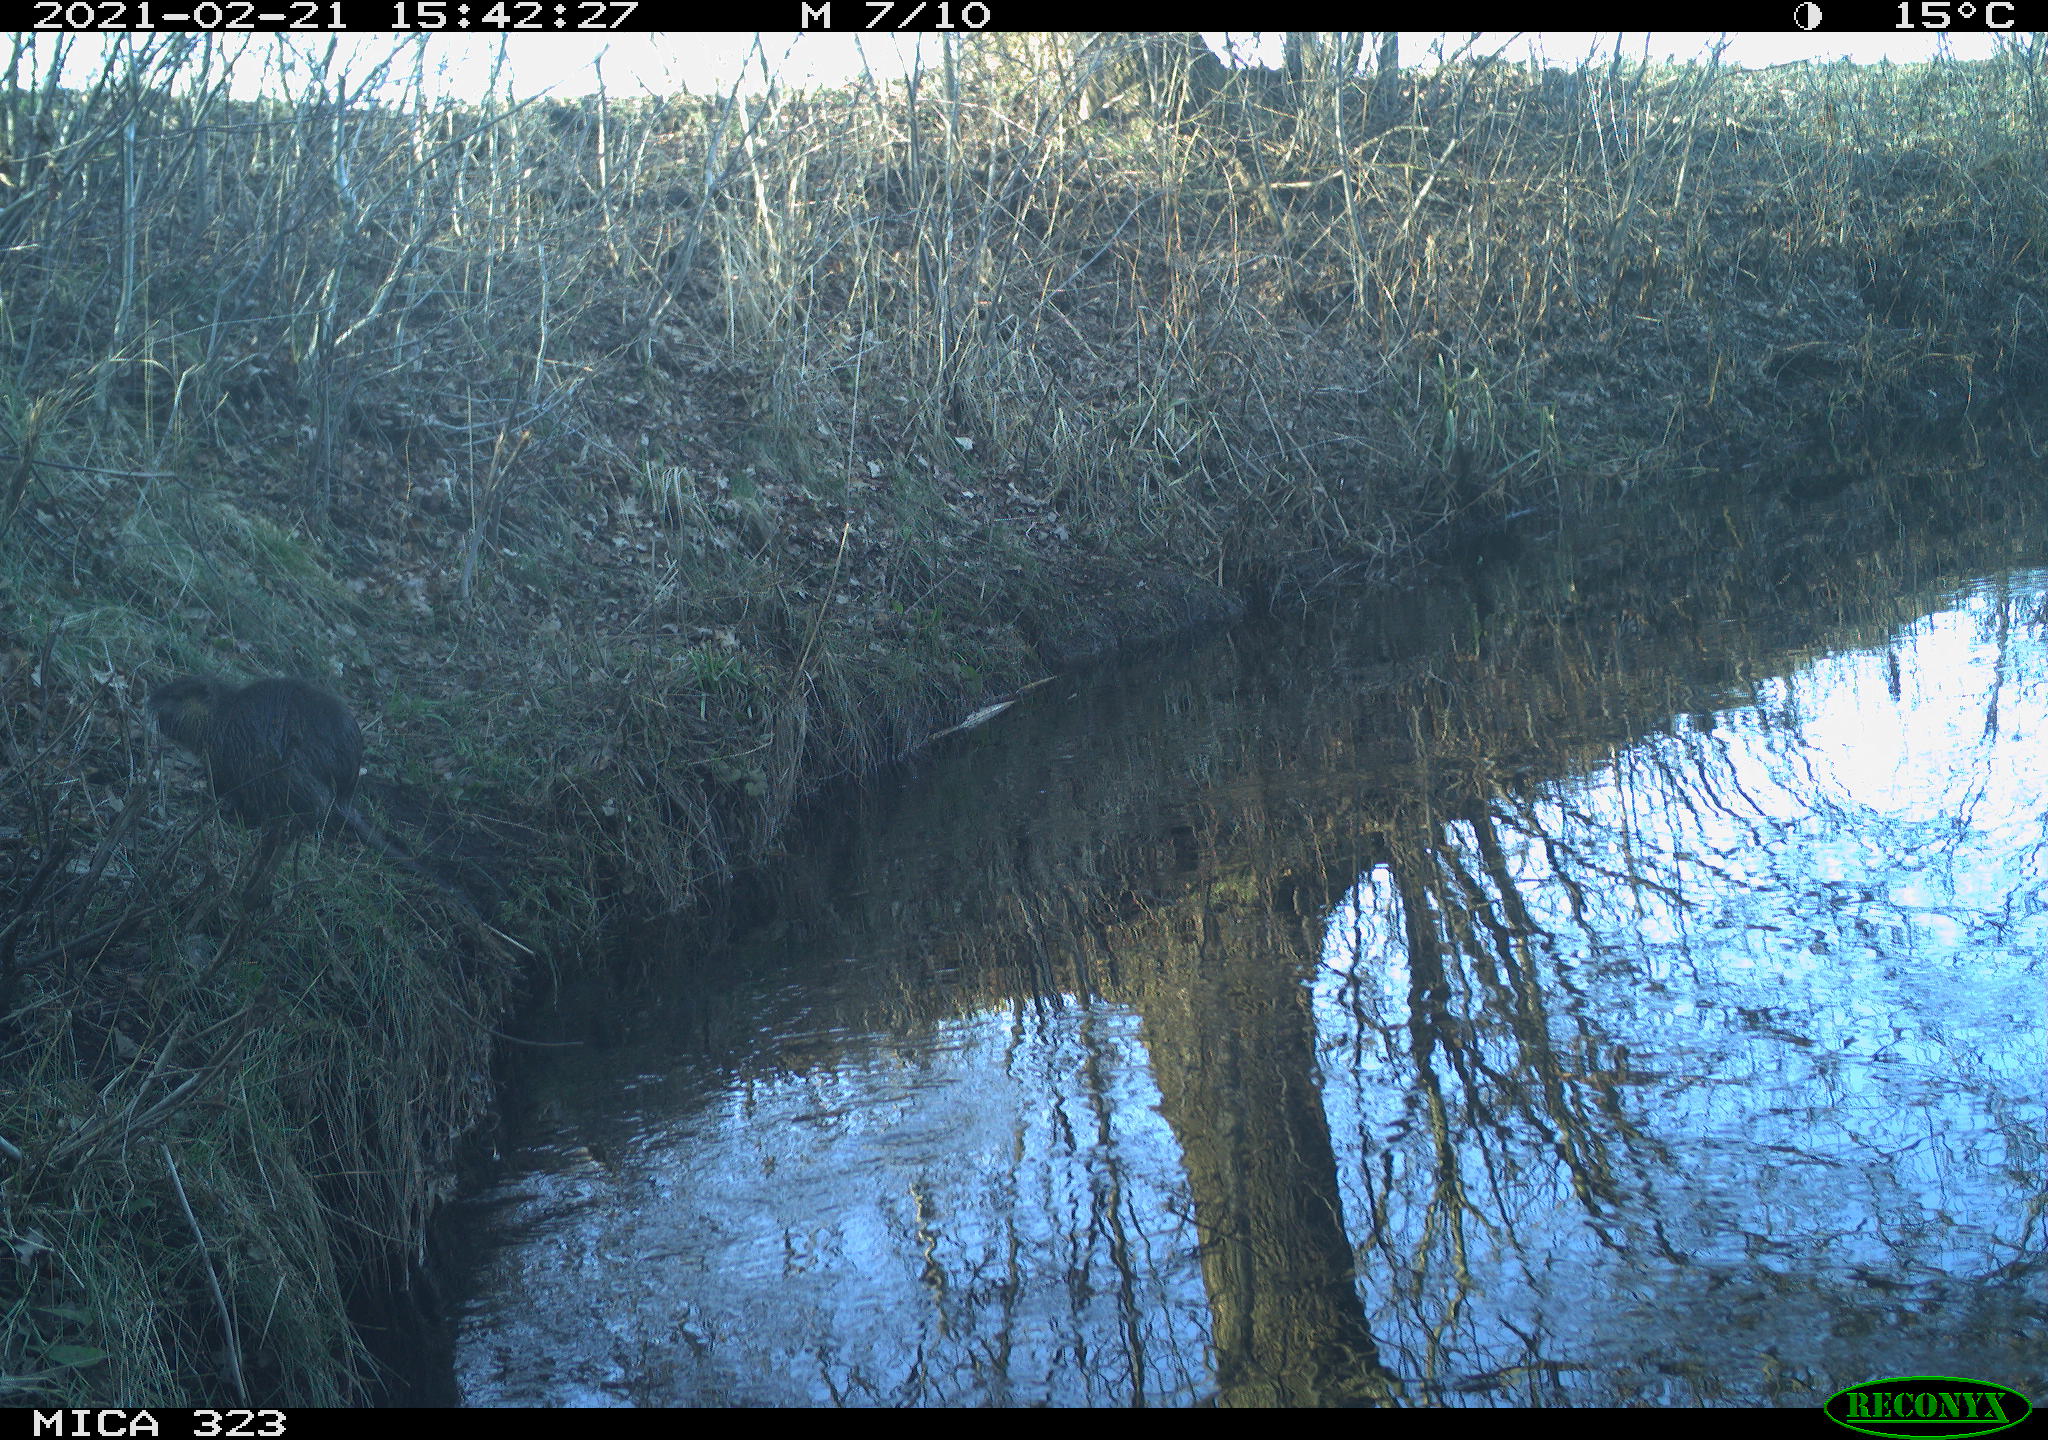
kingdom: Animalia
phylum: Chordata
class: Mammalia
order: Rodentia
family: Myocastoridae
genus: Myocastor
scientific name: Myocastor coypus
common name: Coypu
